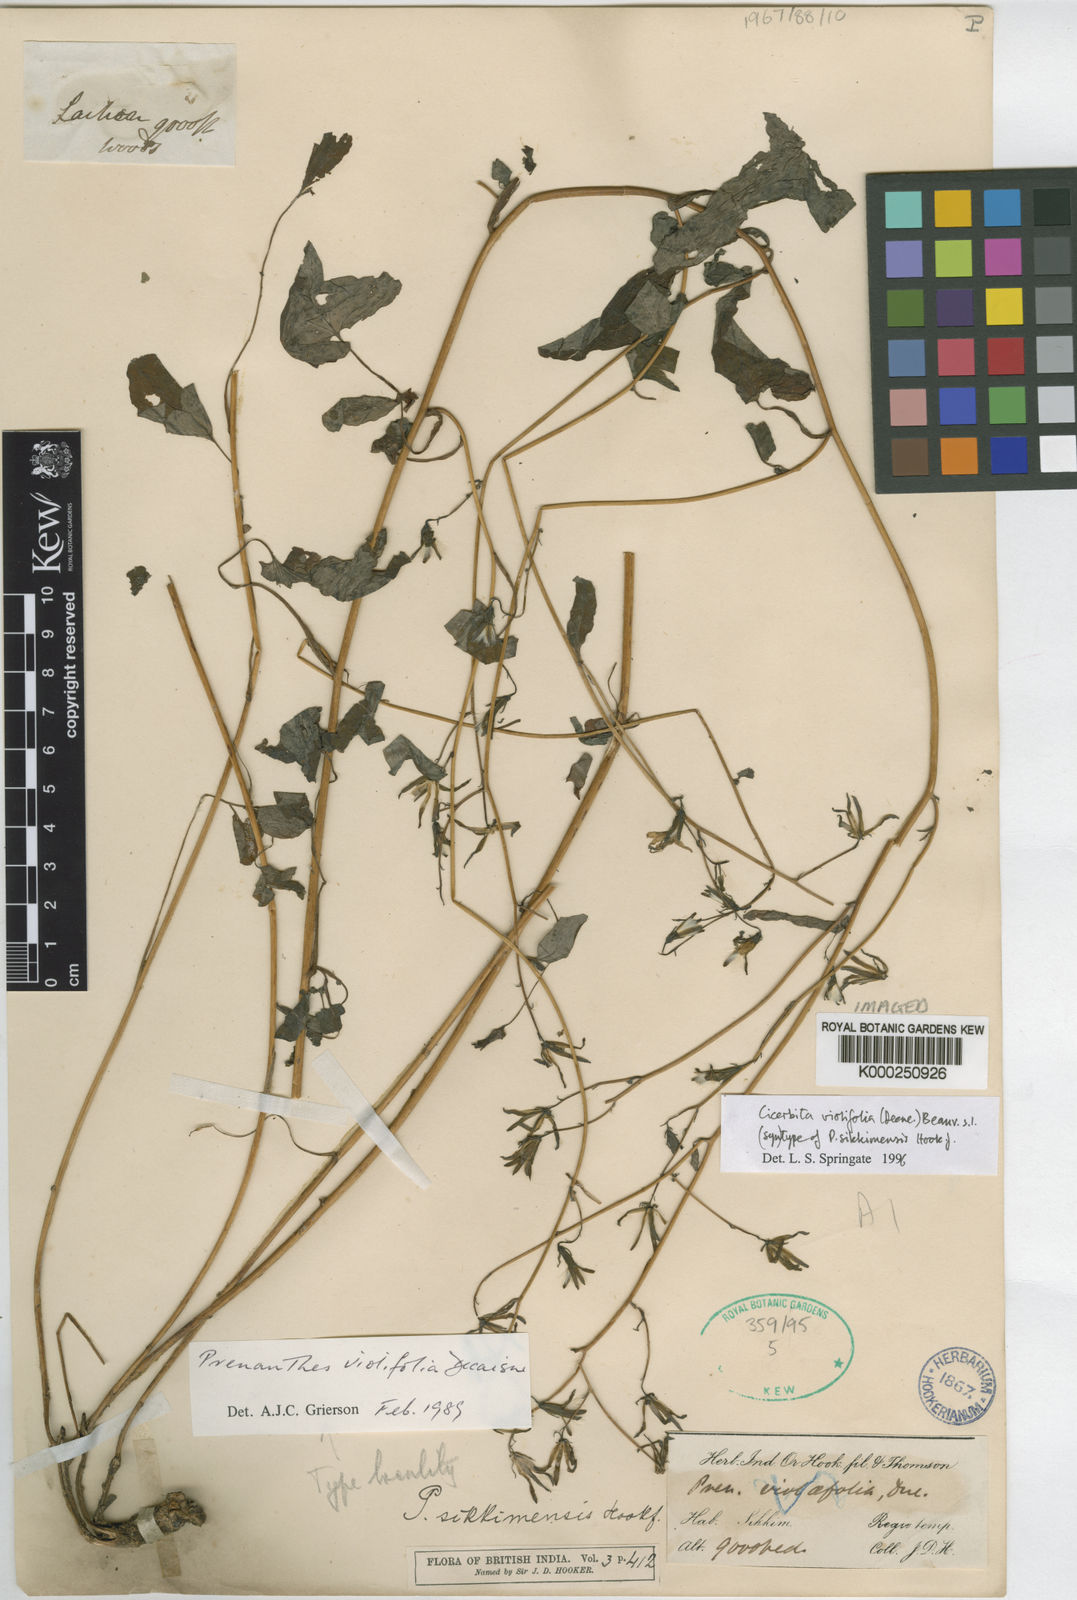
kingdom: Plantae
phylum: Tracheophyta
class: Magnoliopsida
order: Asterales
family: Asteraceae
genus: Melanoseris
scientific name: Melanoseris violifolia
